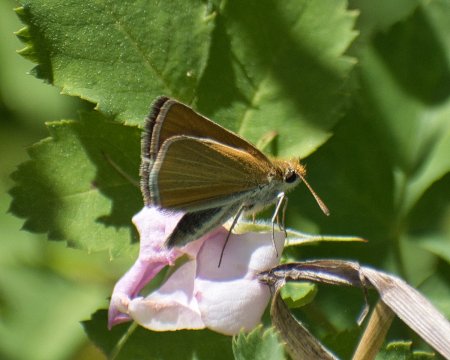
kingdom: Animalia
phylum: Arthropoda
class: Insecta
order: Lepidoptera
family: Hesperiidae
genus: Oarisma
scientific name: Oarisma garita
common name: Garita Skipperling
